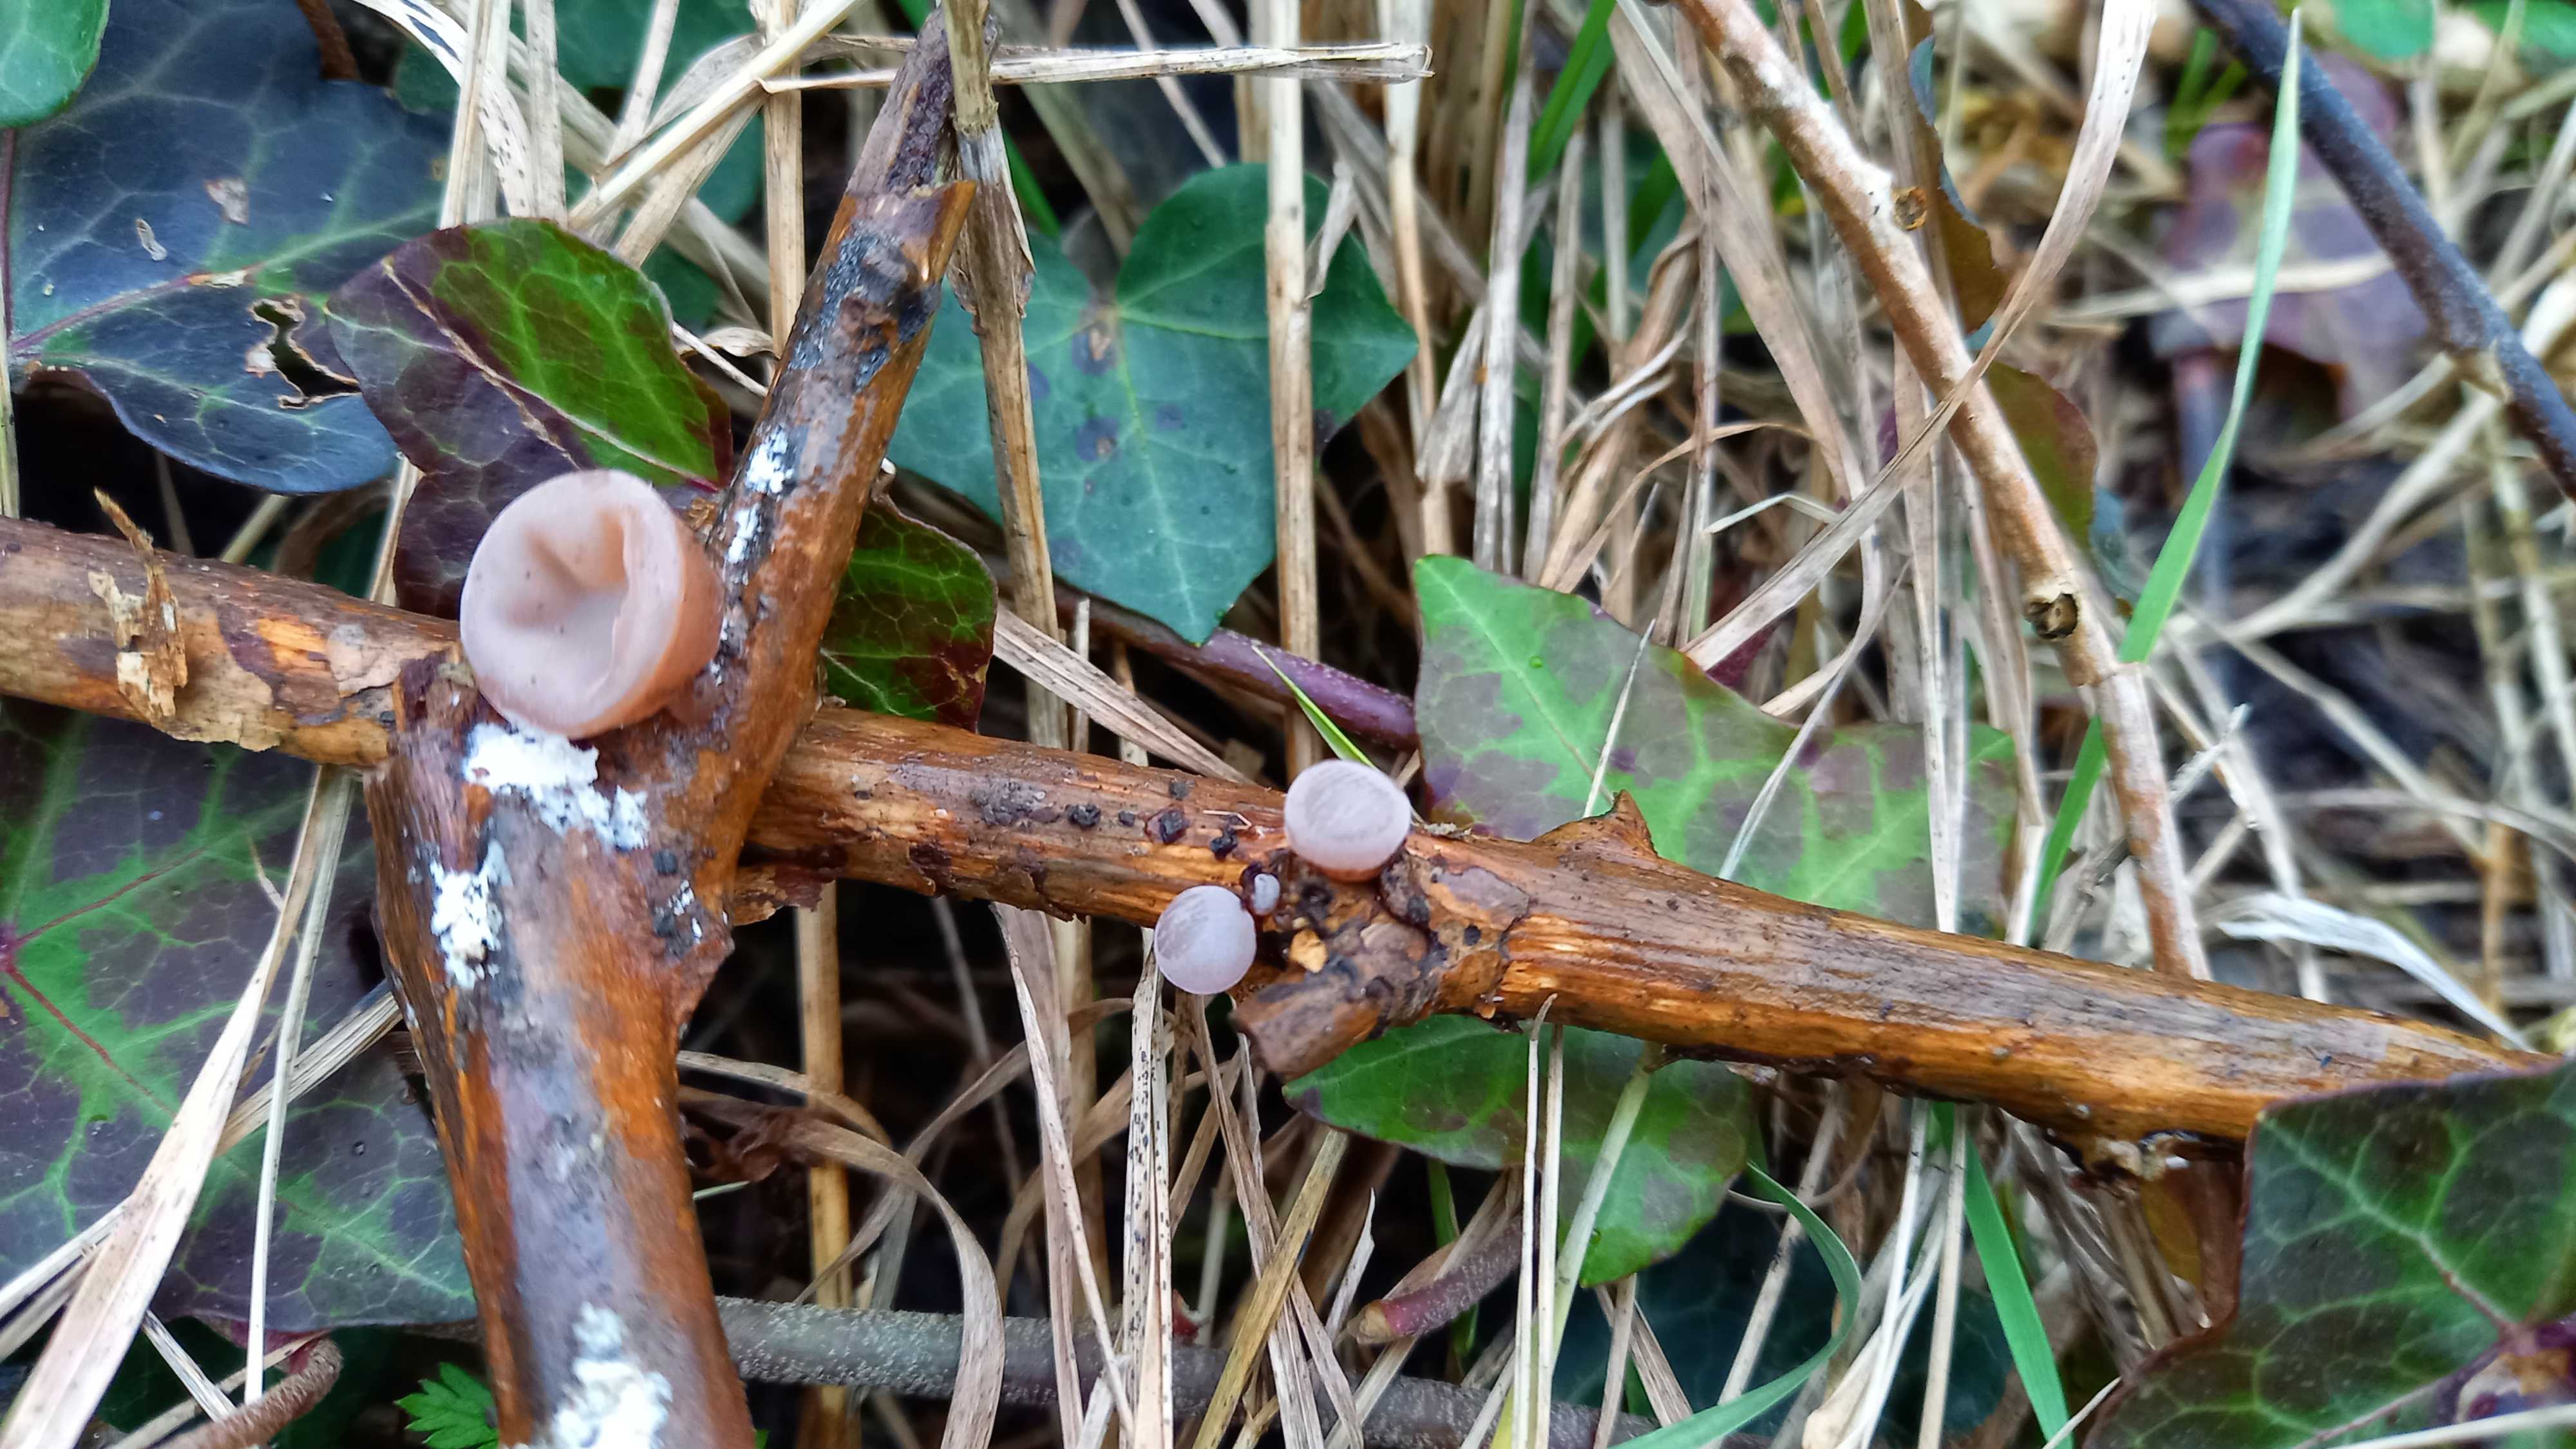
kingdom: Fungi
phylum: Basidiomycota
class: Agaricomycetes
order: Auriculariales
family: Auriculariaceae
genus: Auricularia
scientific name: Auricularia auricula-judae
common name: almindelig judasøre
